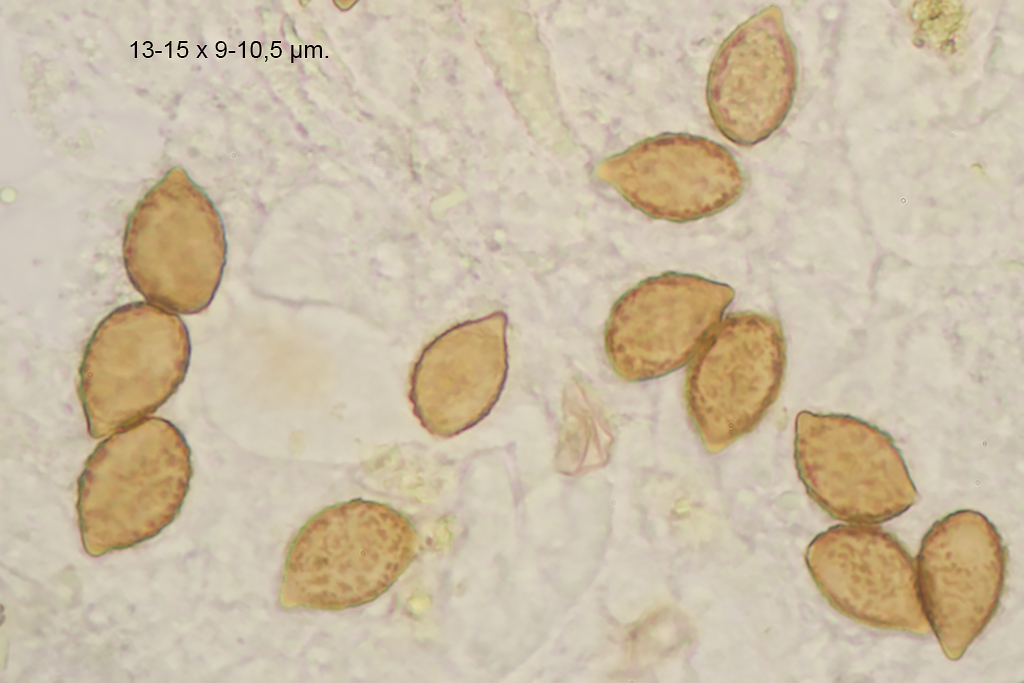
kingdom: Fungi
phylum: Basidiomycota
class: Agaricomycetes
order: Agaricales
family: Cortinariaceae
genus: Calonarius
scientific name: Calonarius elegantissimus
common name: orangegylden slørhat
